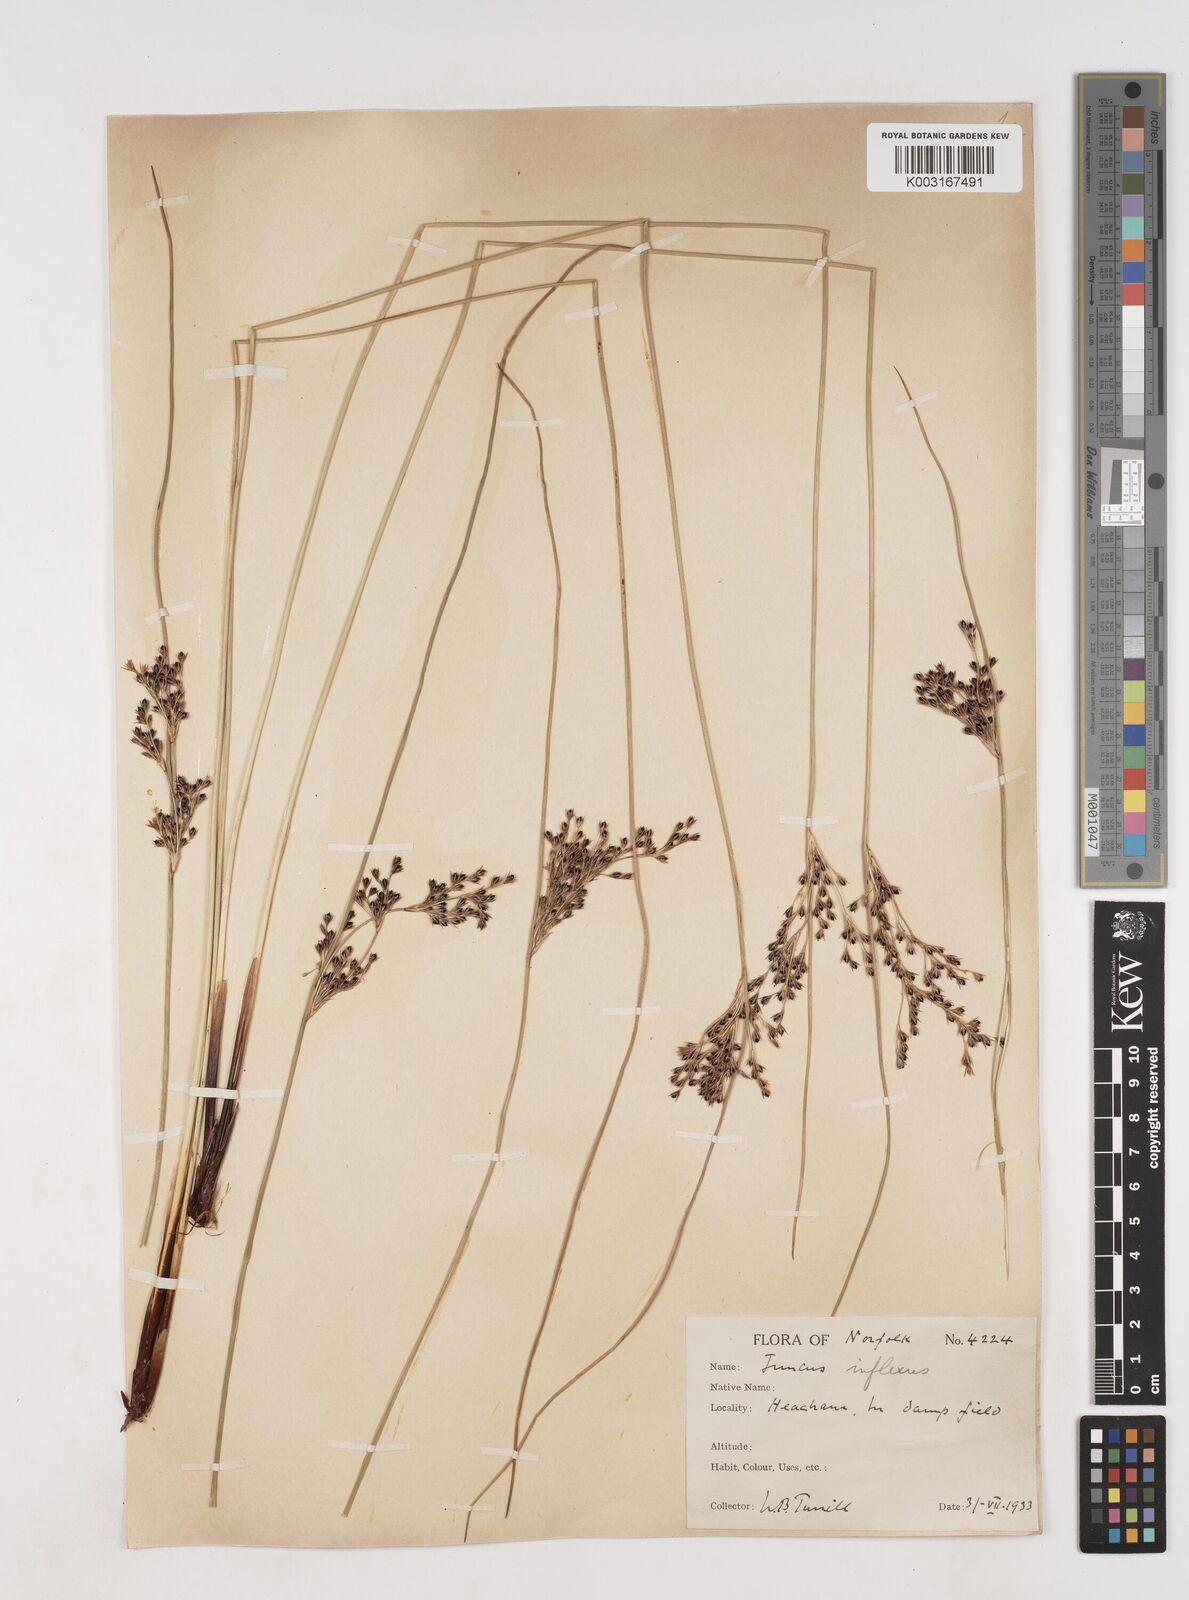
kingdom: Plantae
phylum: Tracheophyta
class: Liliopsida
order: Poales
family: Juncaceae
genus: Juncus
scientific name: Juncus inflexus
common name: Hard rush
